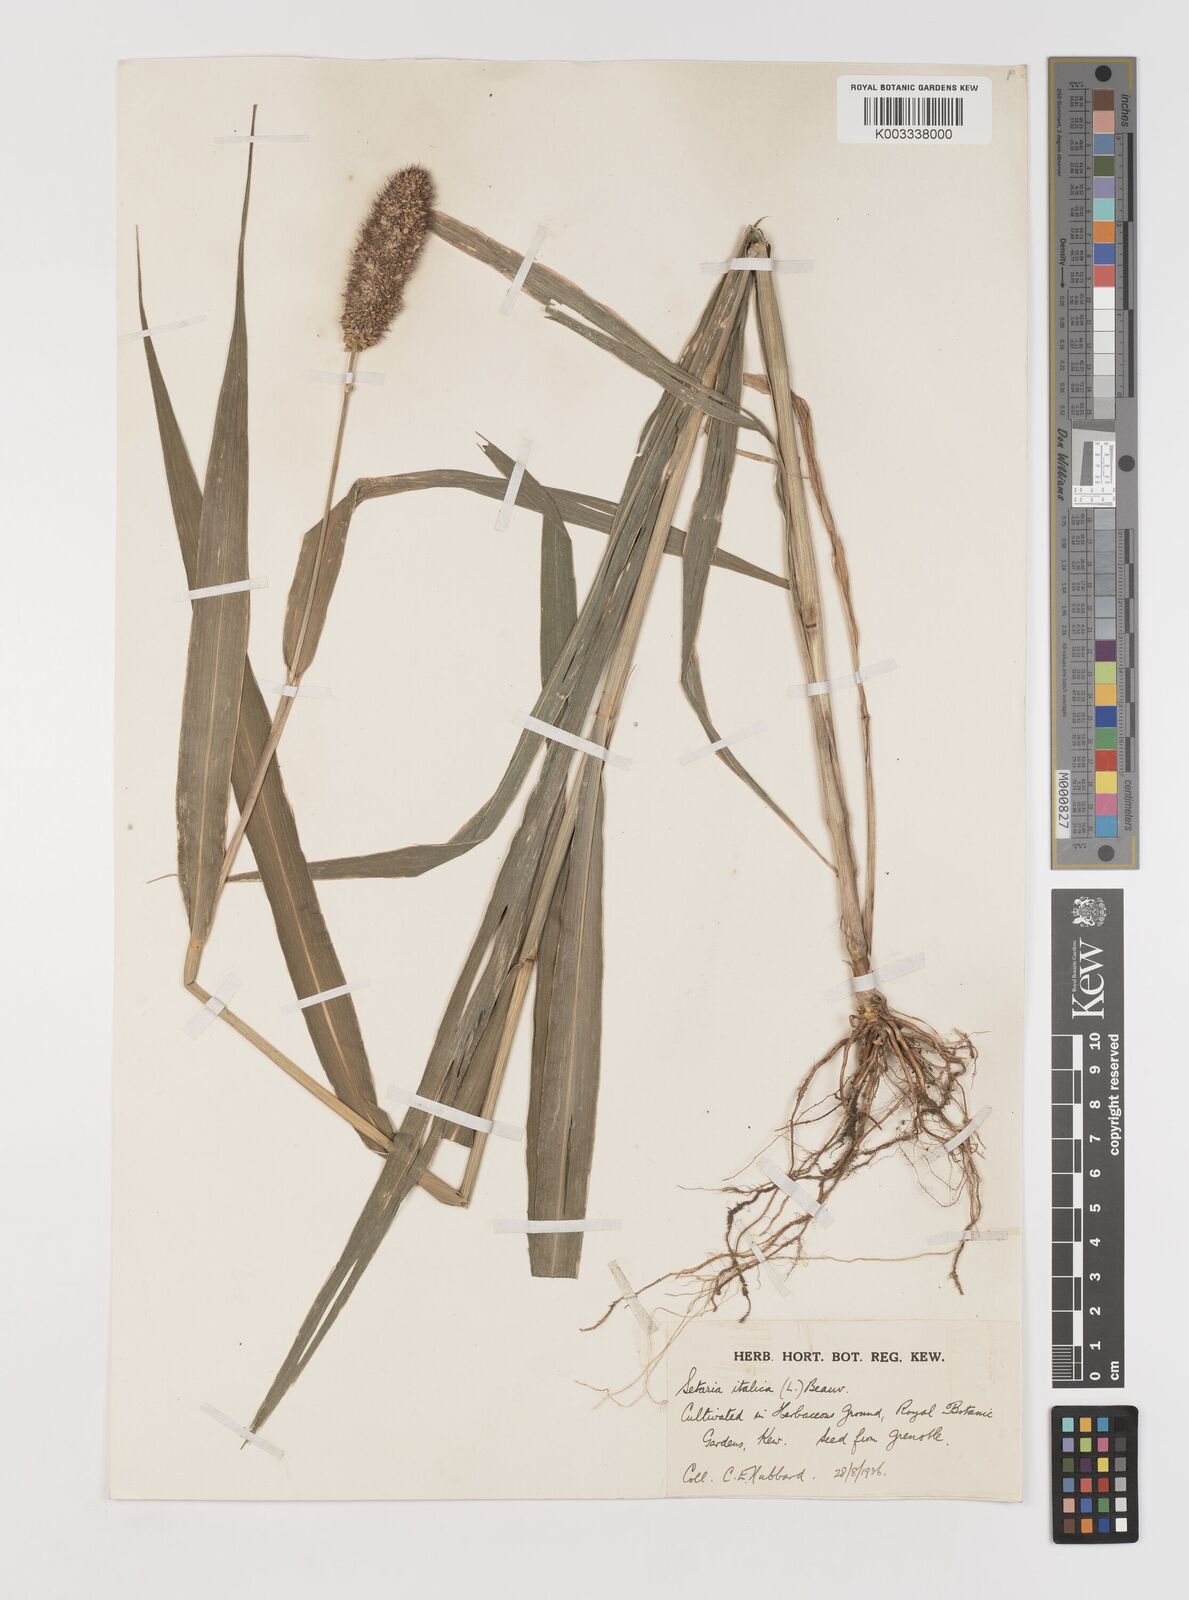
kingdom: Plantae
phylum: Tracheophyta
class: Liliopsida
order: Poales
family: Poaceae
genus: Setaria
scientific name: Setaria italica
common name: Foxtail bristle-grass
